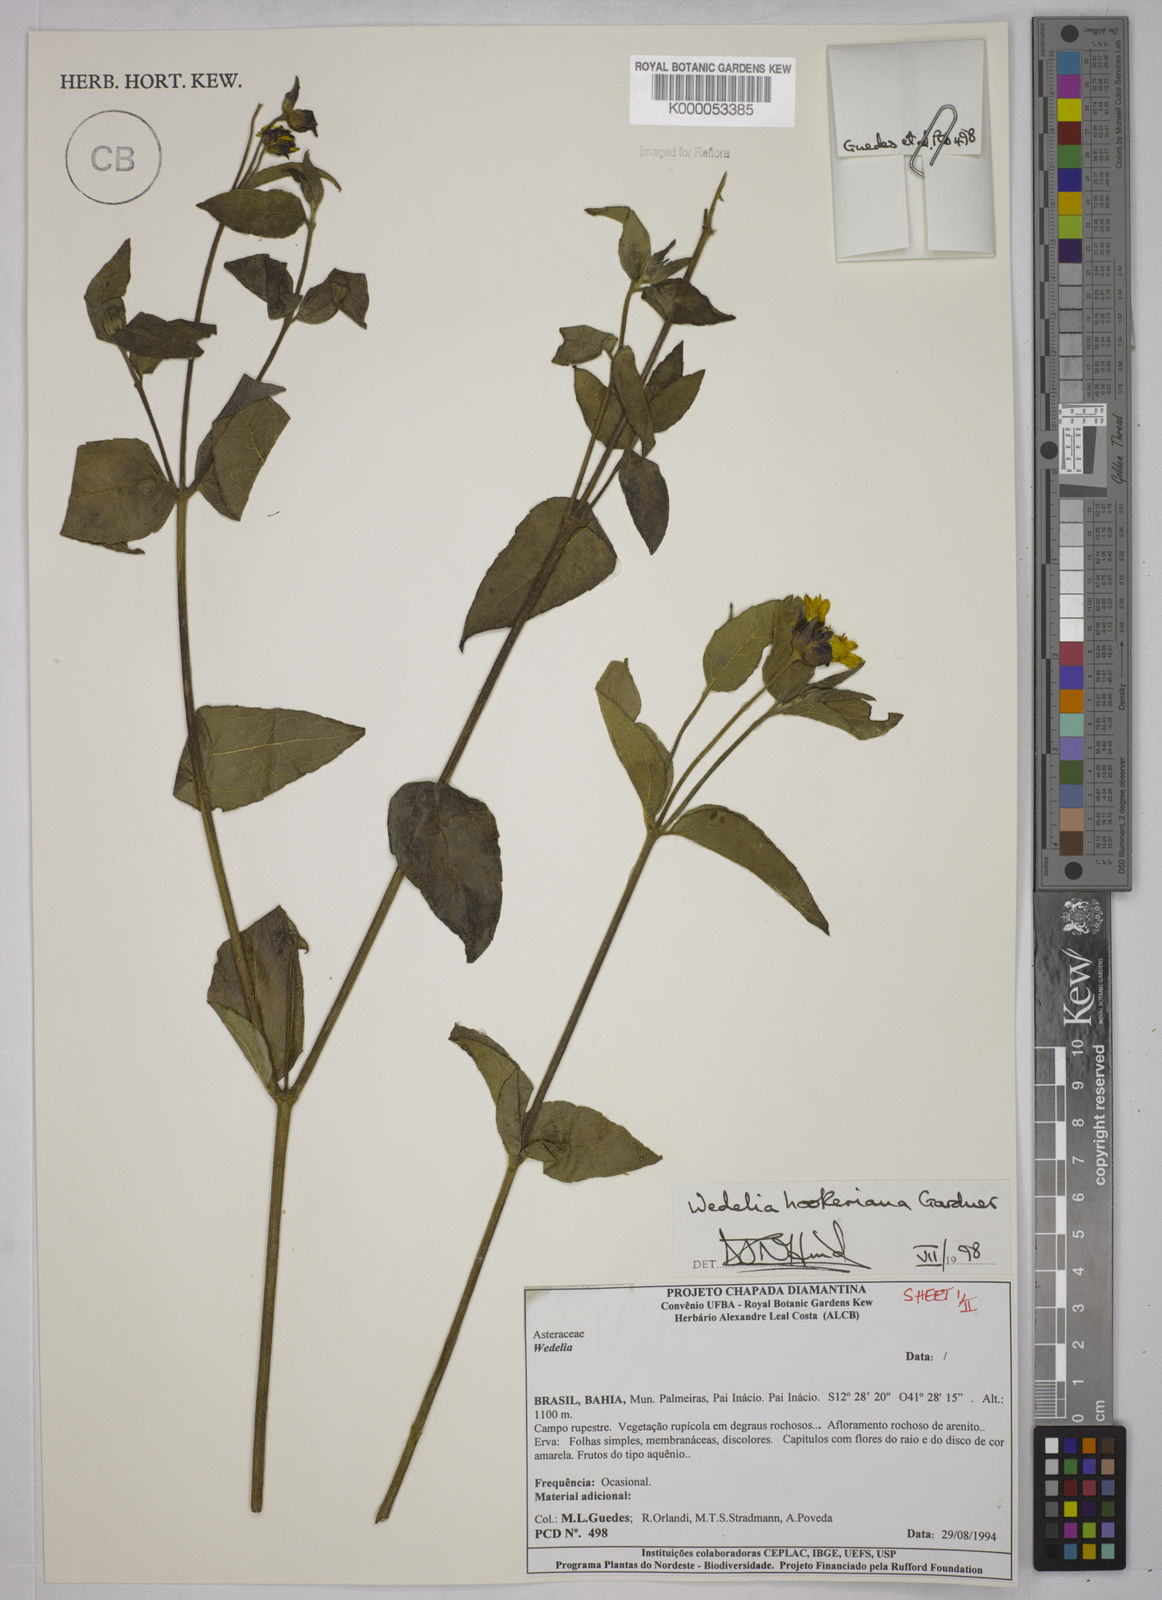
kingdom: Plantae
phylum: Tracheophyta
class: Magnoliopsida
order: Asterales
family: Asteraceae
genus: Wedelia
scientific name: Wedelia hookeriana
